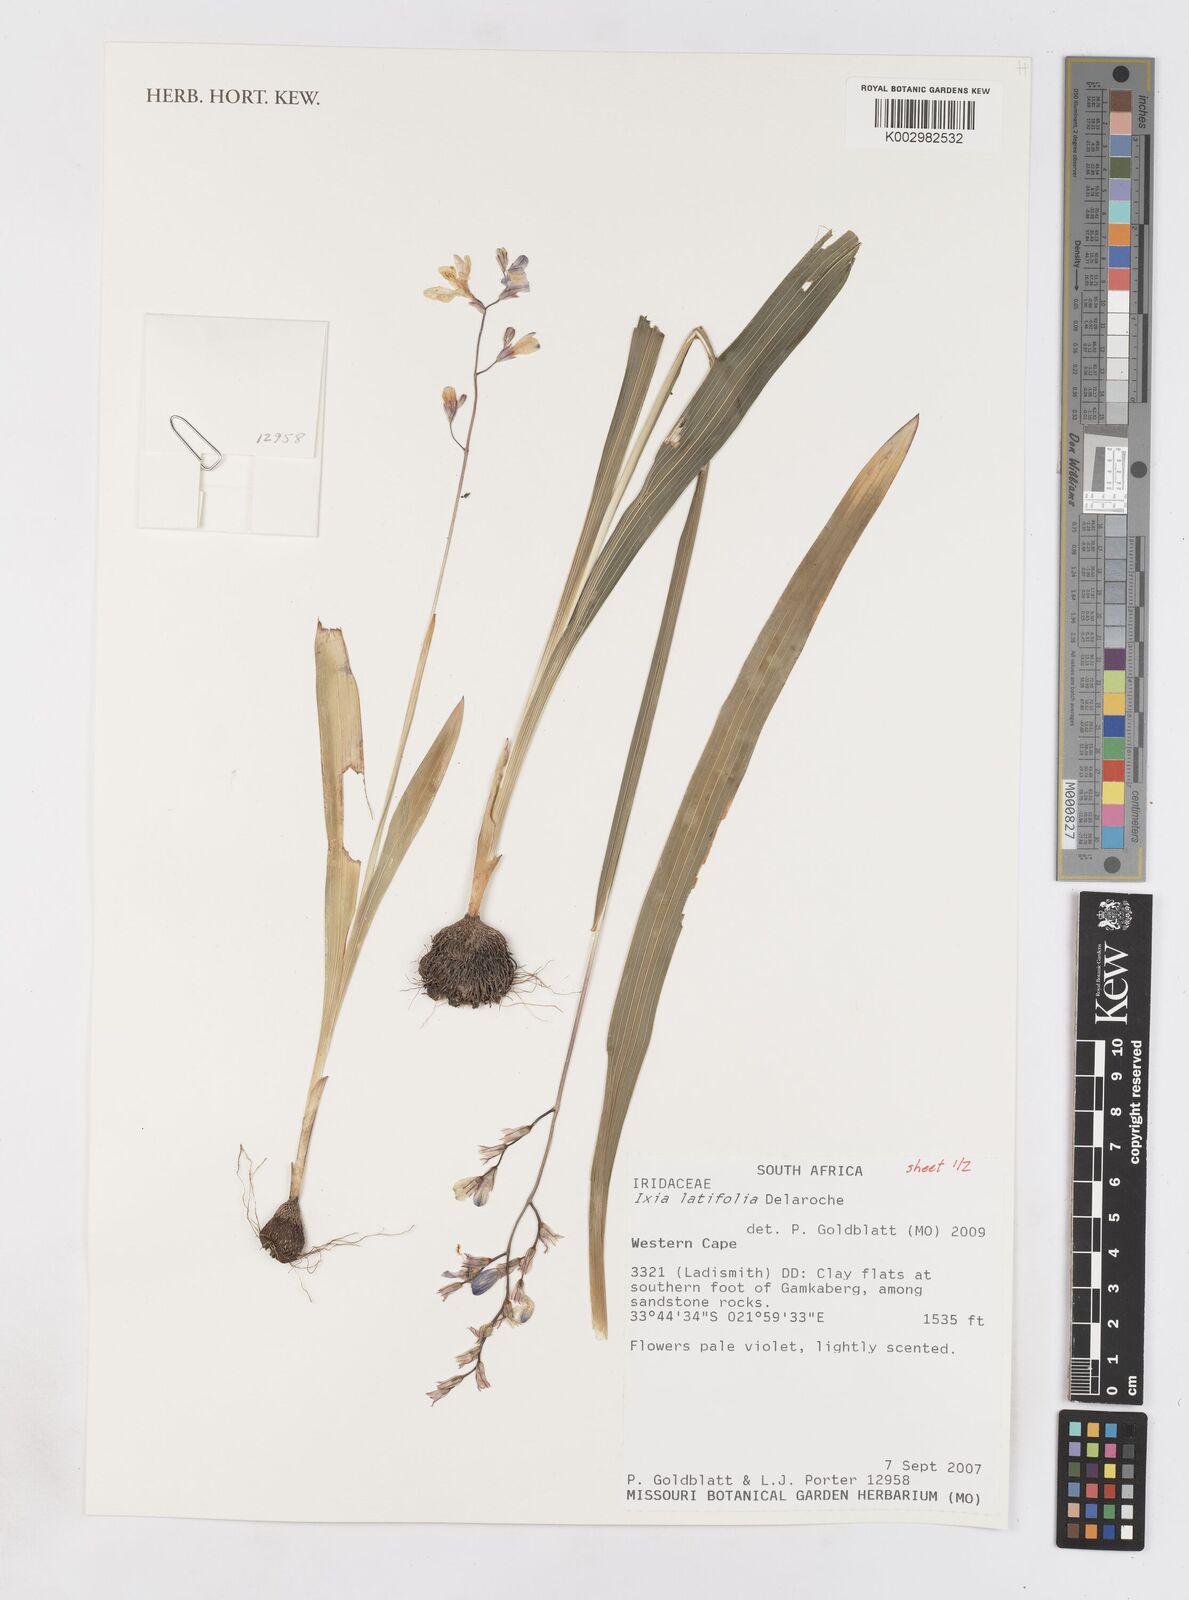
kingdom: Plantae
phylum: Tracheophyta
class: Liliopsida
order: Asparagales
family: Iridaceae
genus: Ixia
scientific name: Ixia latifolia
